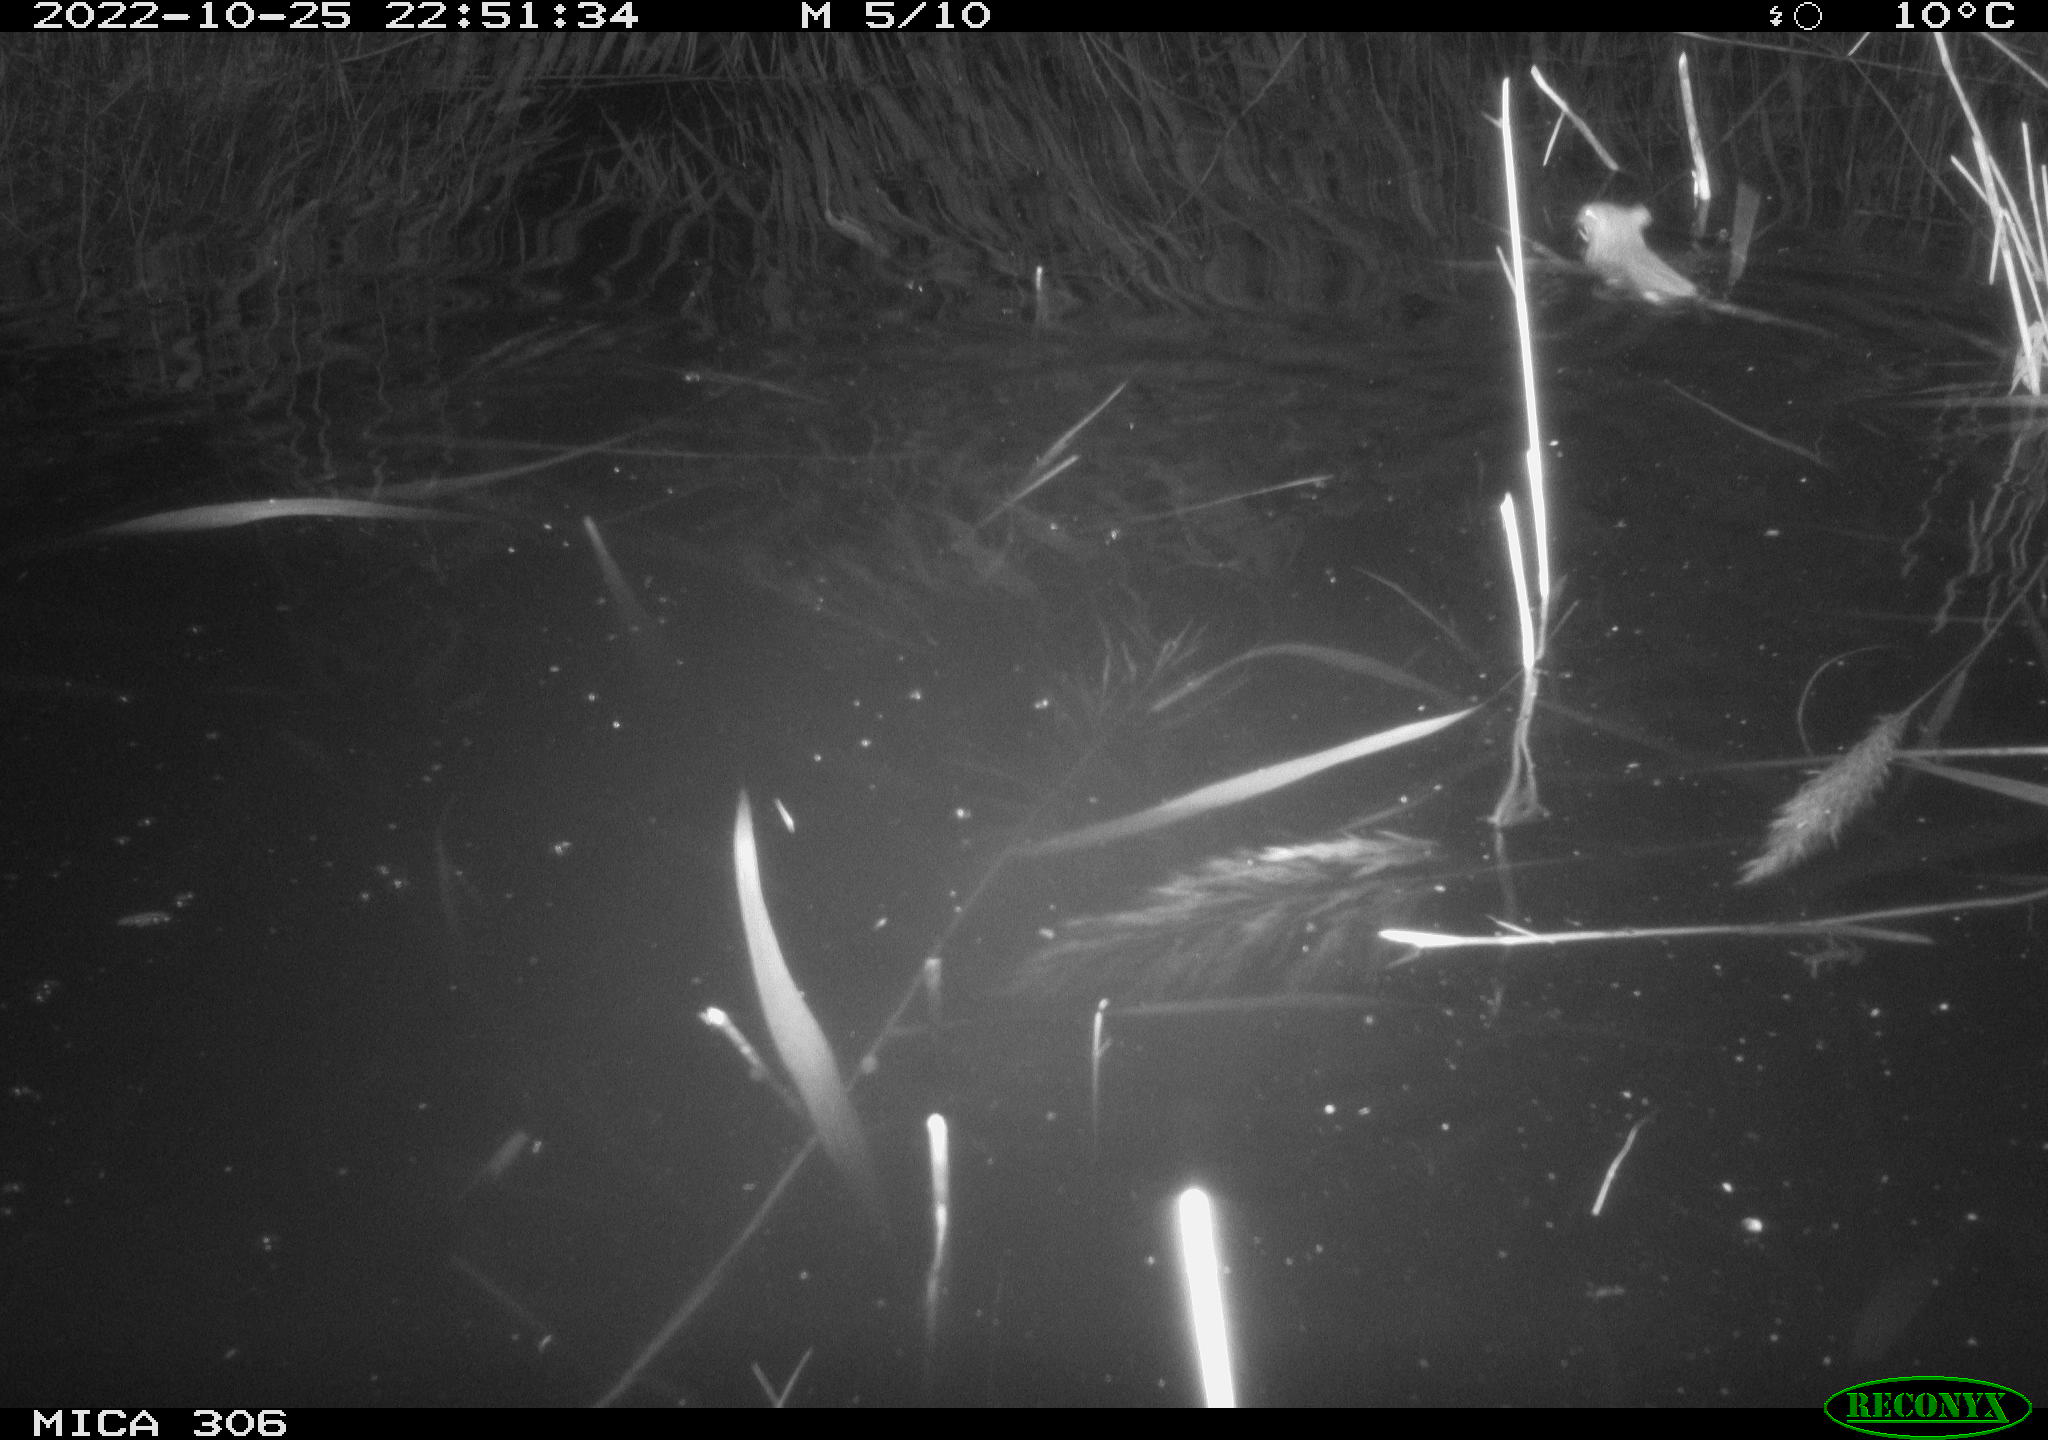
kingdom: Animalia
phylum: Chordata
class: Mammalia
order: Rodentia
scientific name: Rodentia
